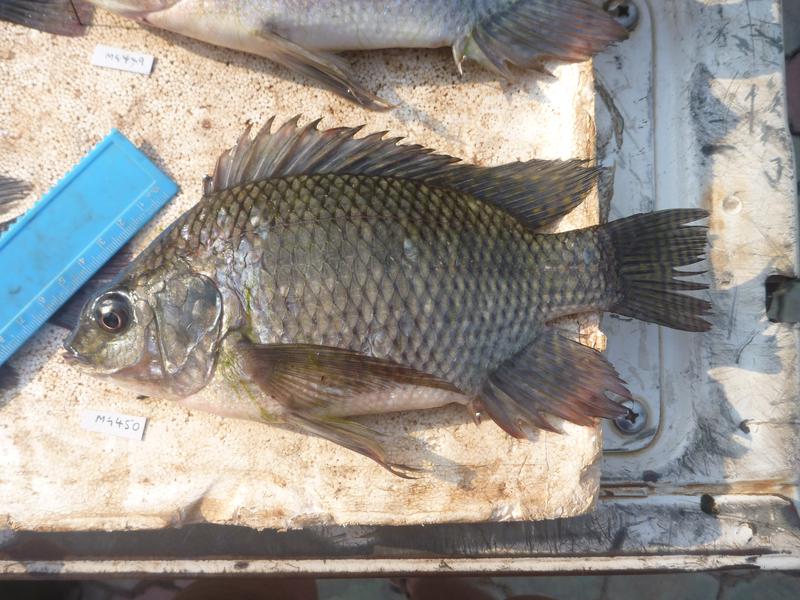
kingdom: Animalia
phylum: Chordata
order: Perciformes
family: Cichlidae
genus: Oreochromis
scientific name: Oreochromis niloticus
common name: Nile tilapia
